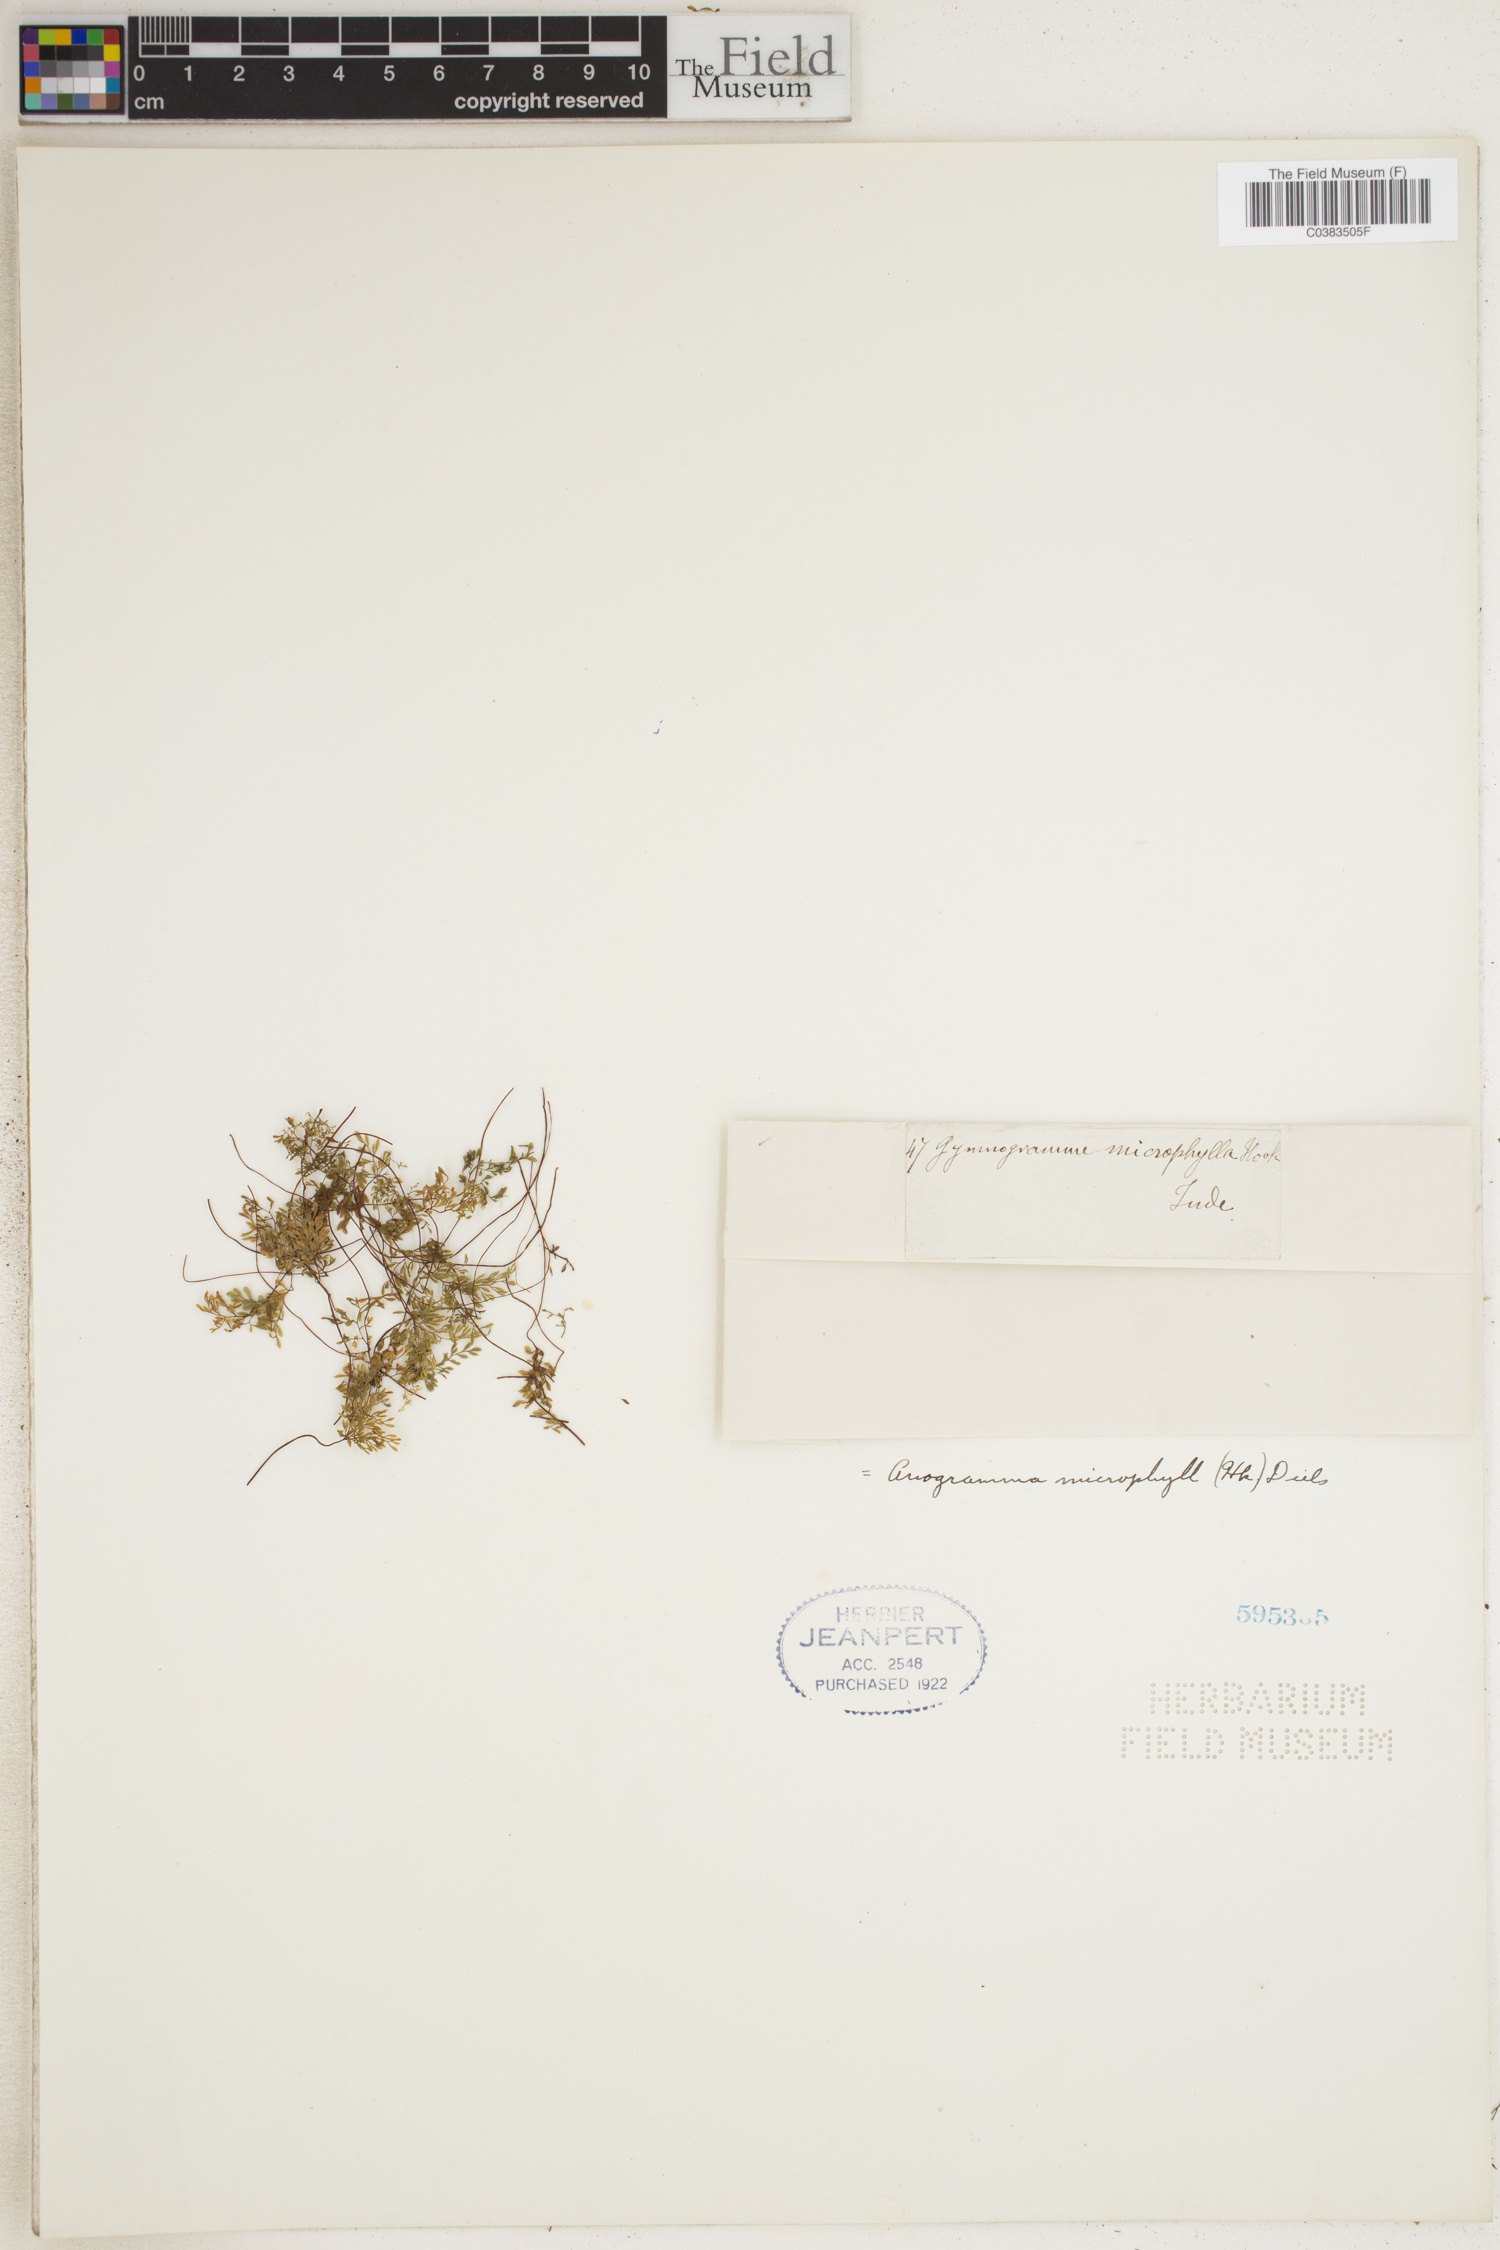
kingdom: Plantae
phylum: Tracheophyta
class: Polypodiopsida
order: Polypodiales
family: Pteridaceae
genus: Cerosora
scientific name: Cerosora microphylla
